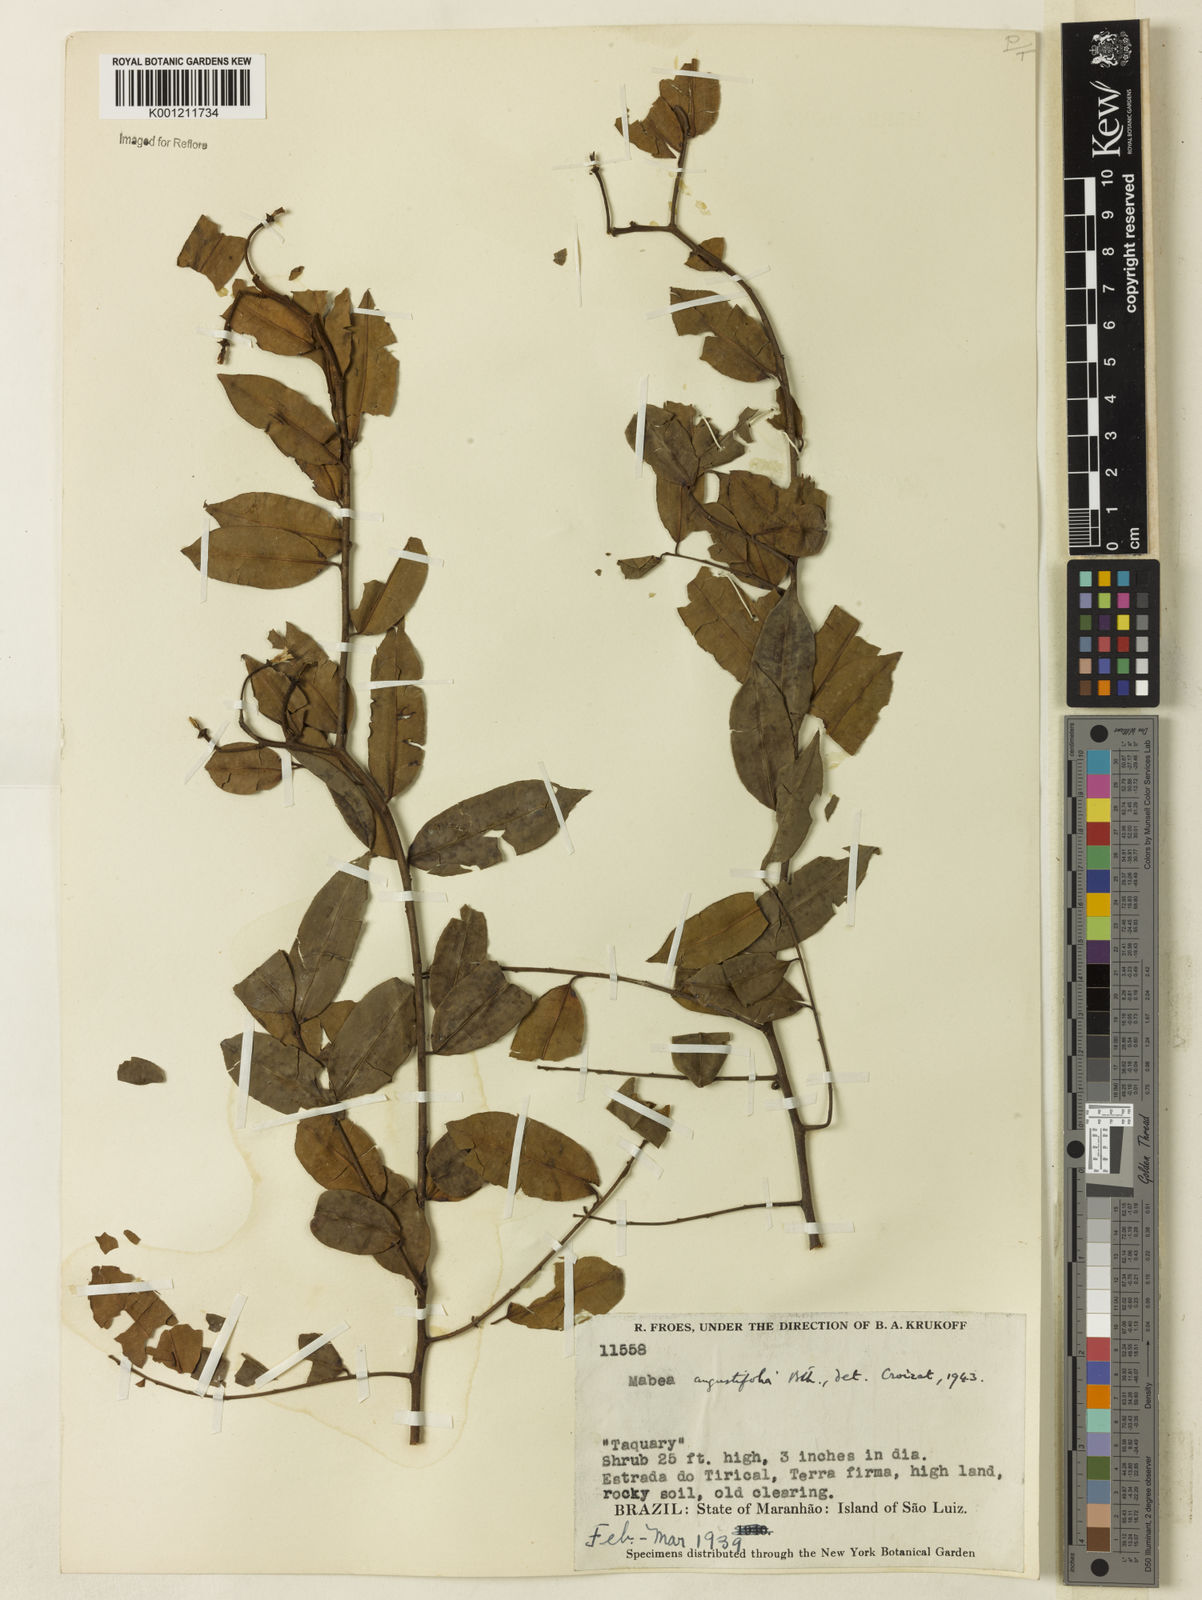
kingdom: Plantae
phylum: Tracheophyta
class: Magnoliopsida
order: Malpighiales
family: Euphorbiaceae
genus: Mabea
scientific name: Mabea angustifolia
